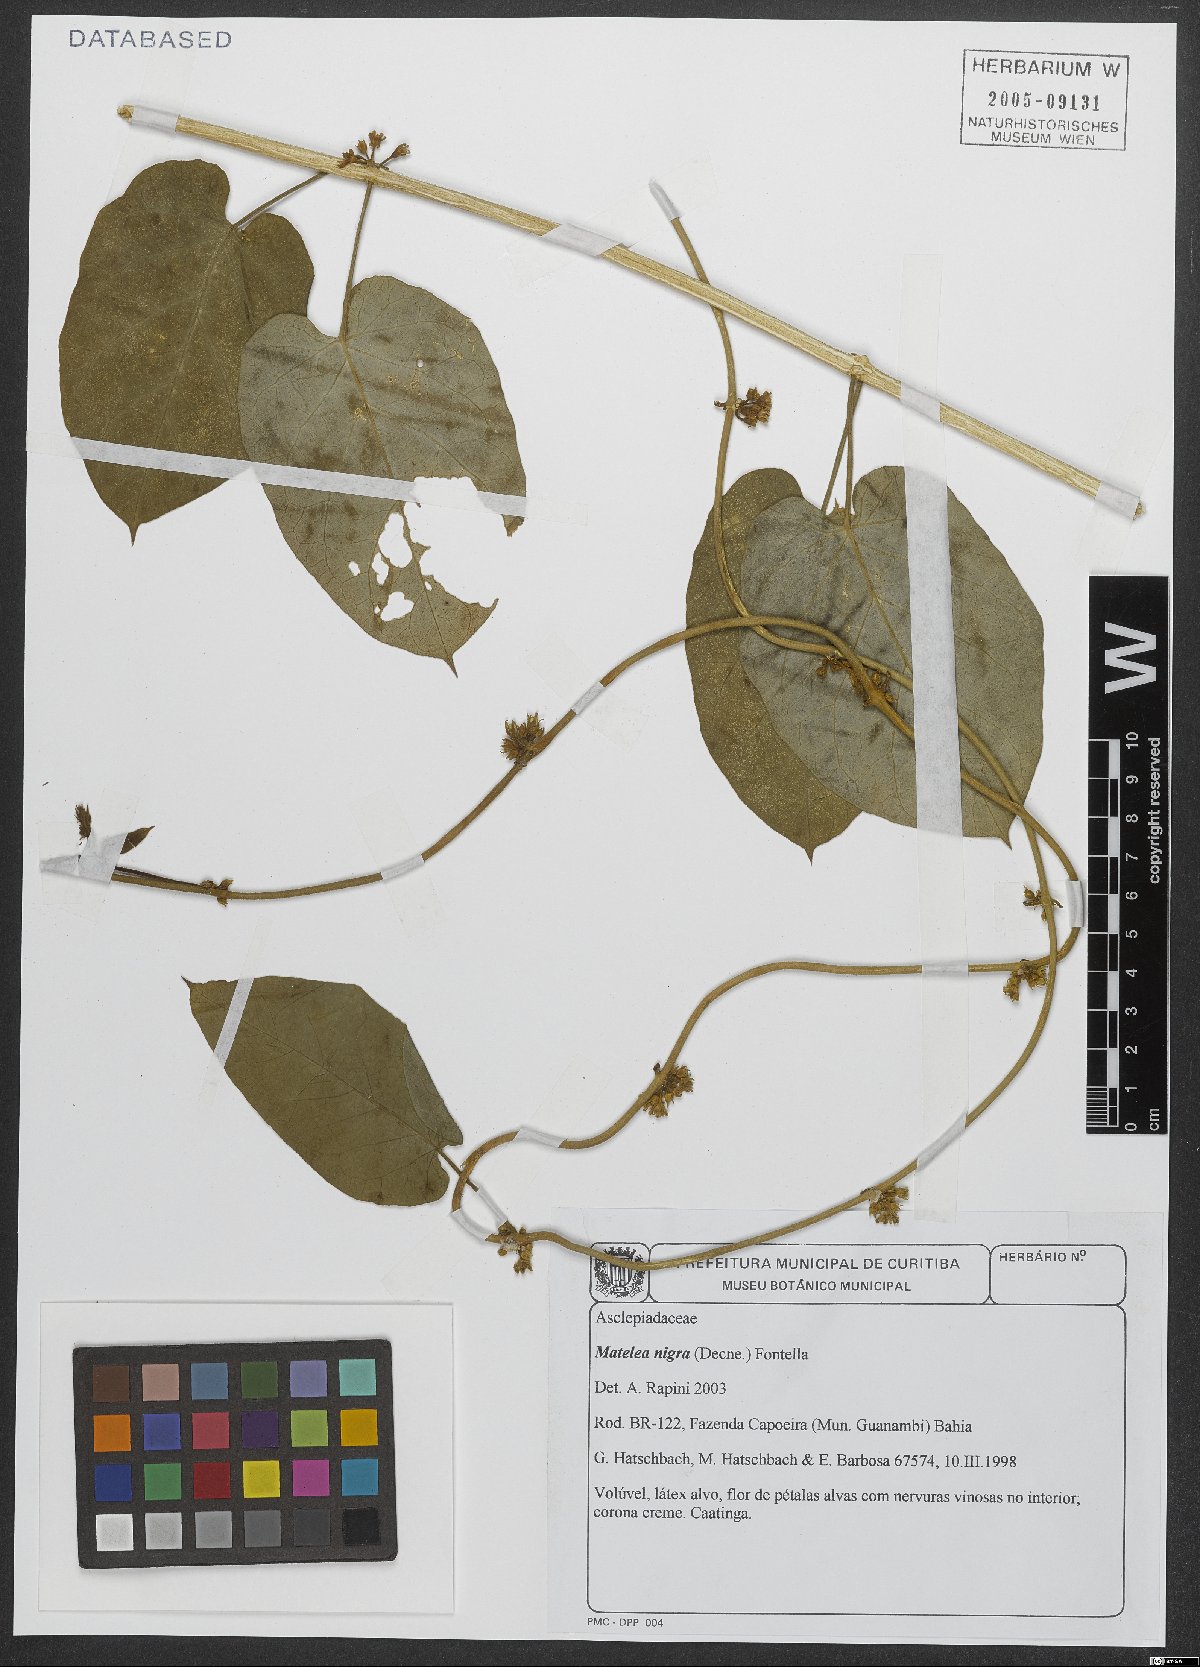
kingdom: Plantae
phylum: Tracheophyta
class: Magnoliopsida
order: Gentianales
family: Apocynaceae
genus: Ibatia
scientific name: Ibatia nigra
